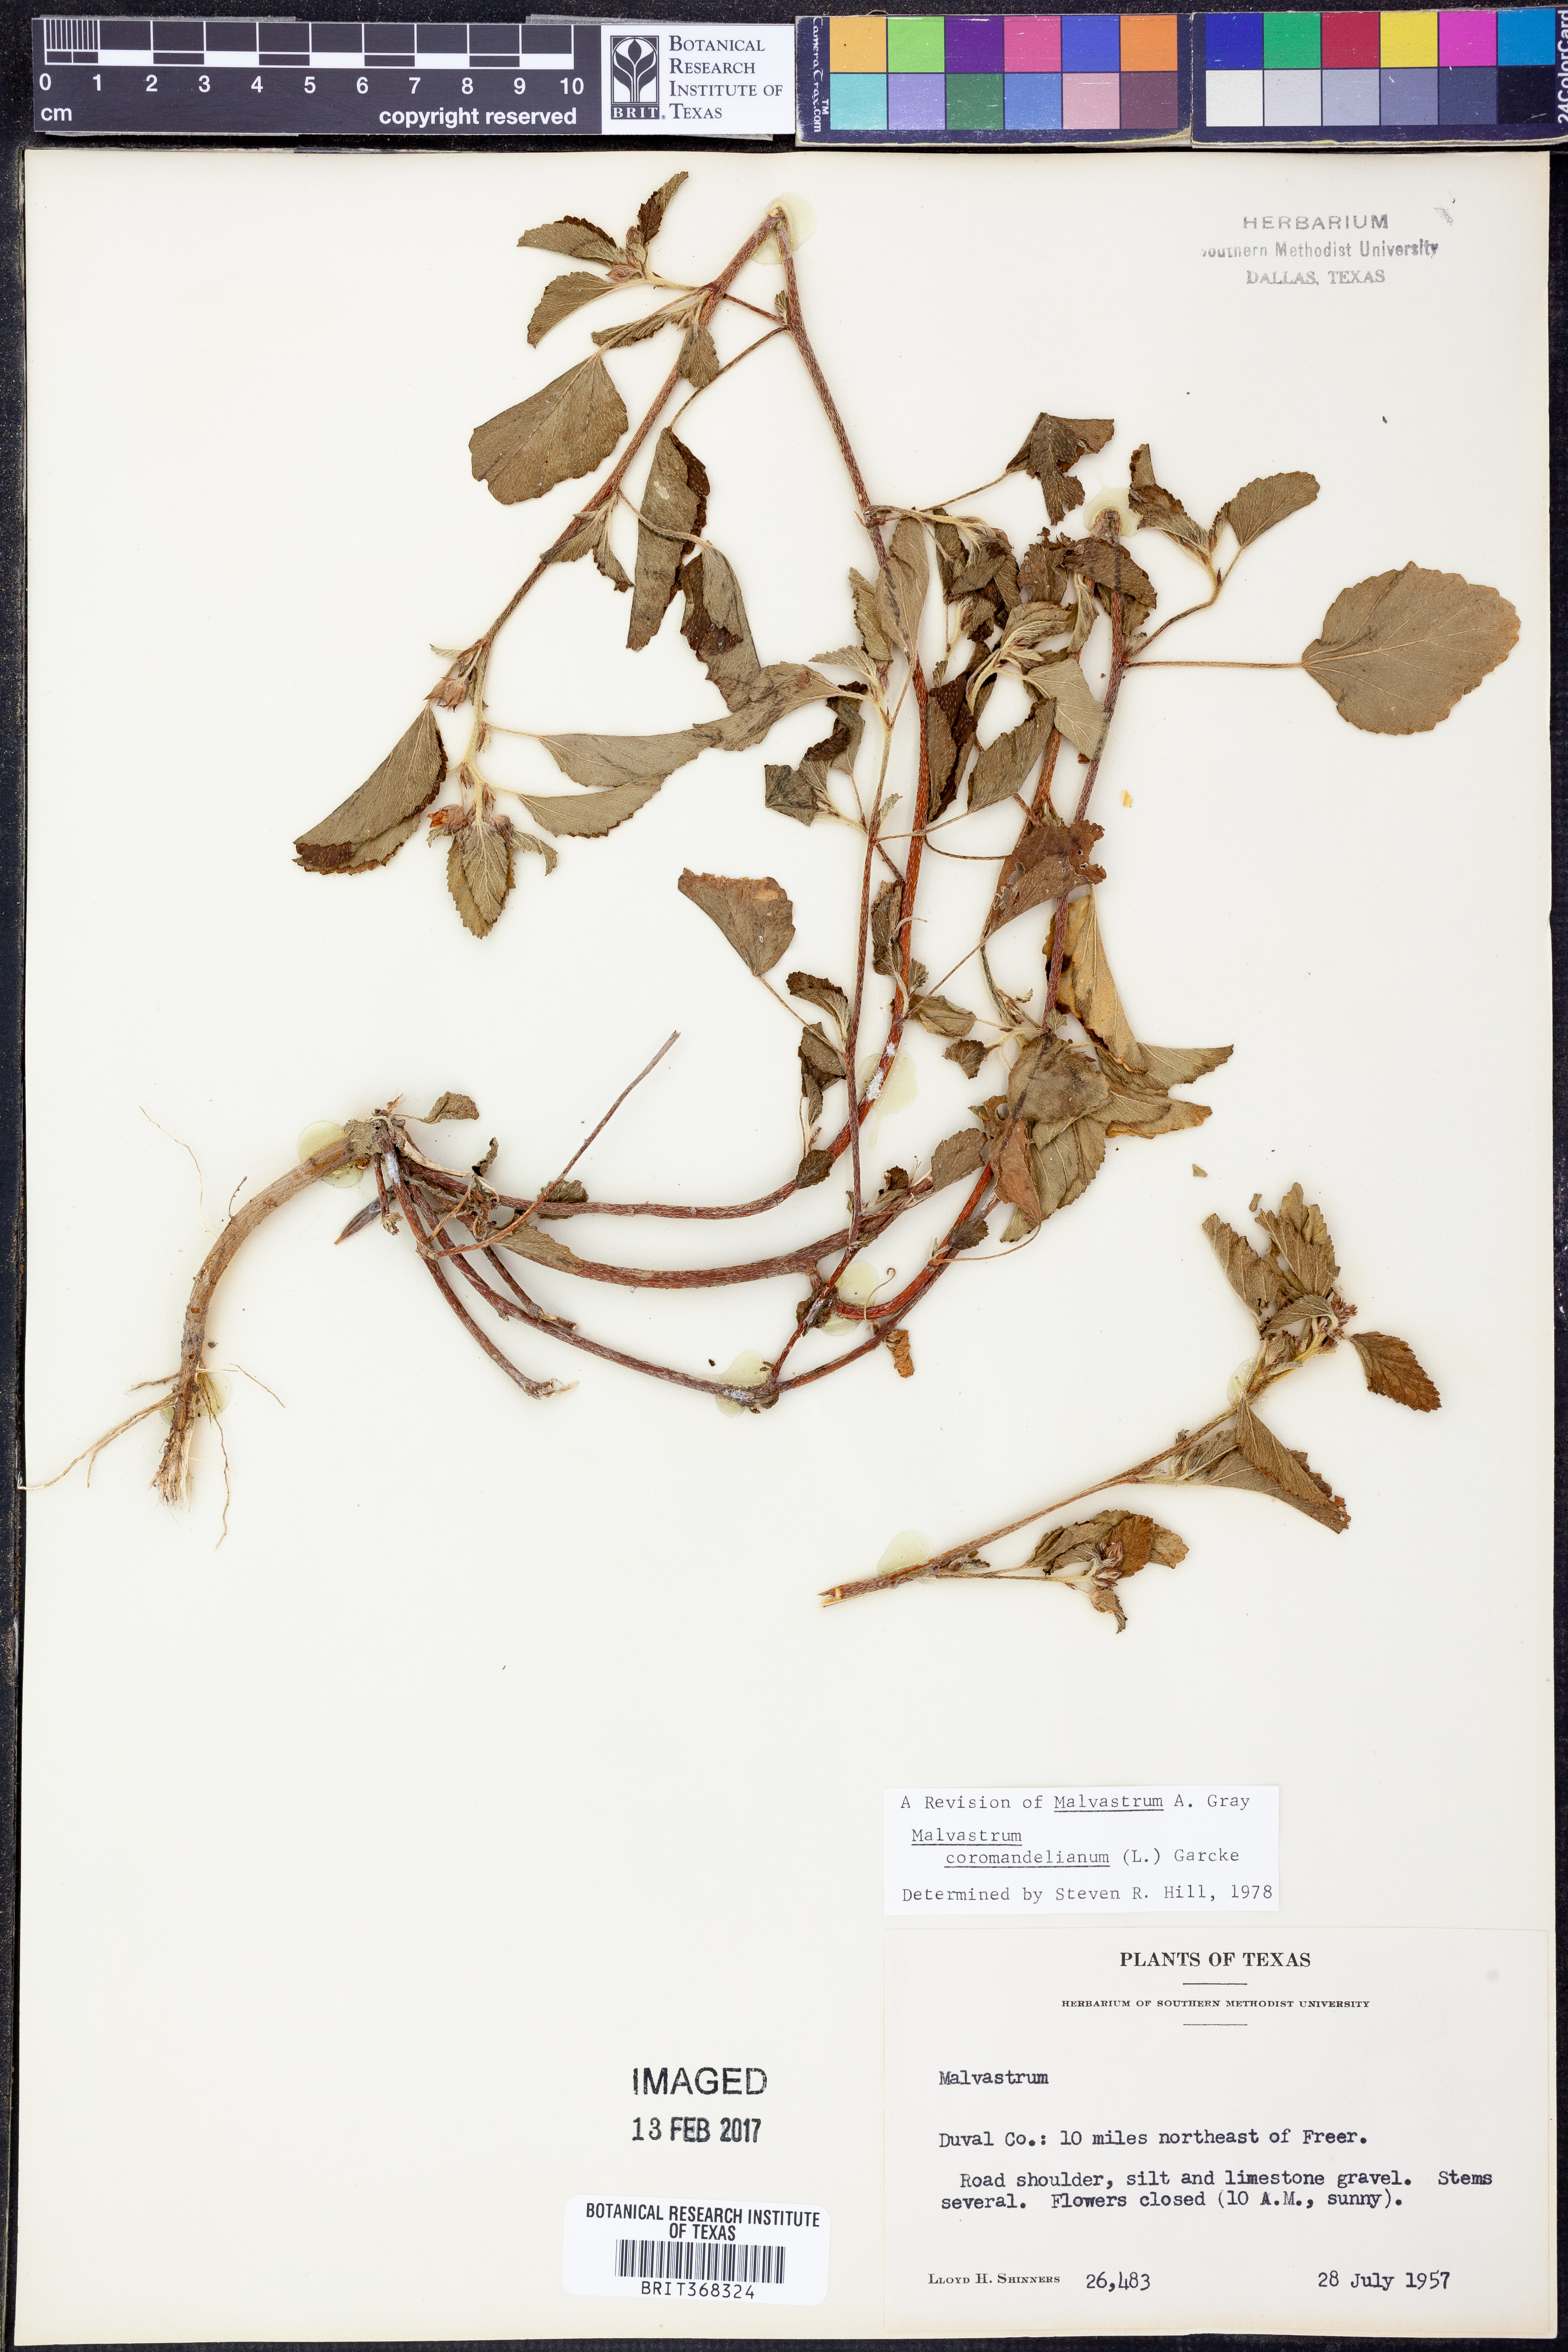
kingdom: Plantae
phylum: Tracheophyta
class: Magnoliopsida
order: Malvales
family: Malvaceae
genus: Malvastrum
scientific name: Malvastrum coromandelianum
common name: Threelobe false mallow
